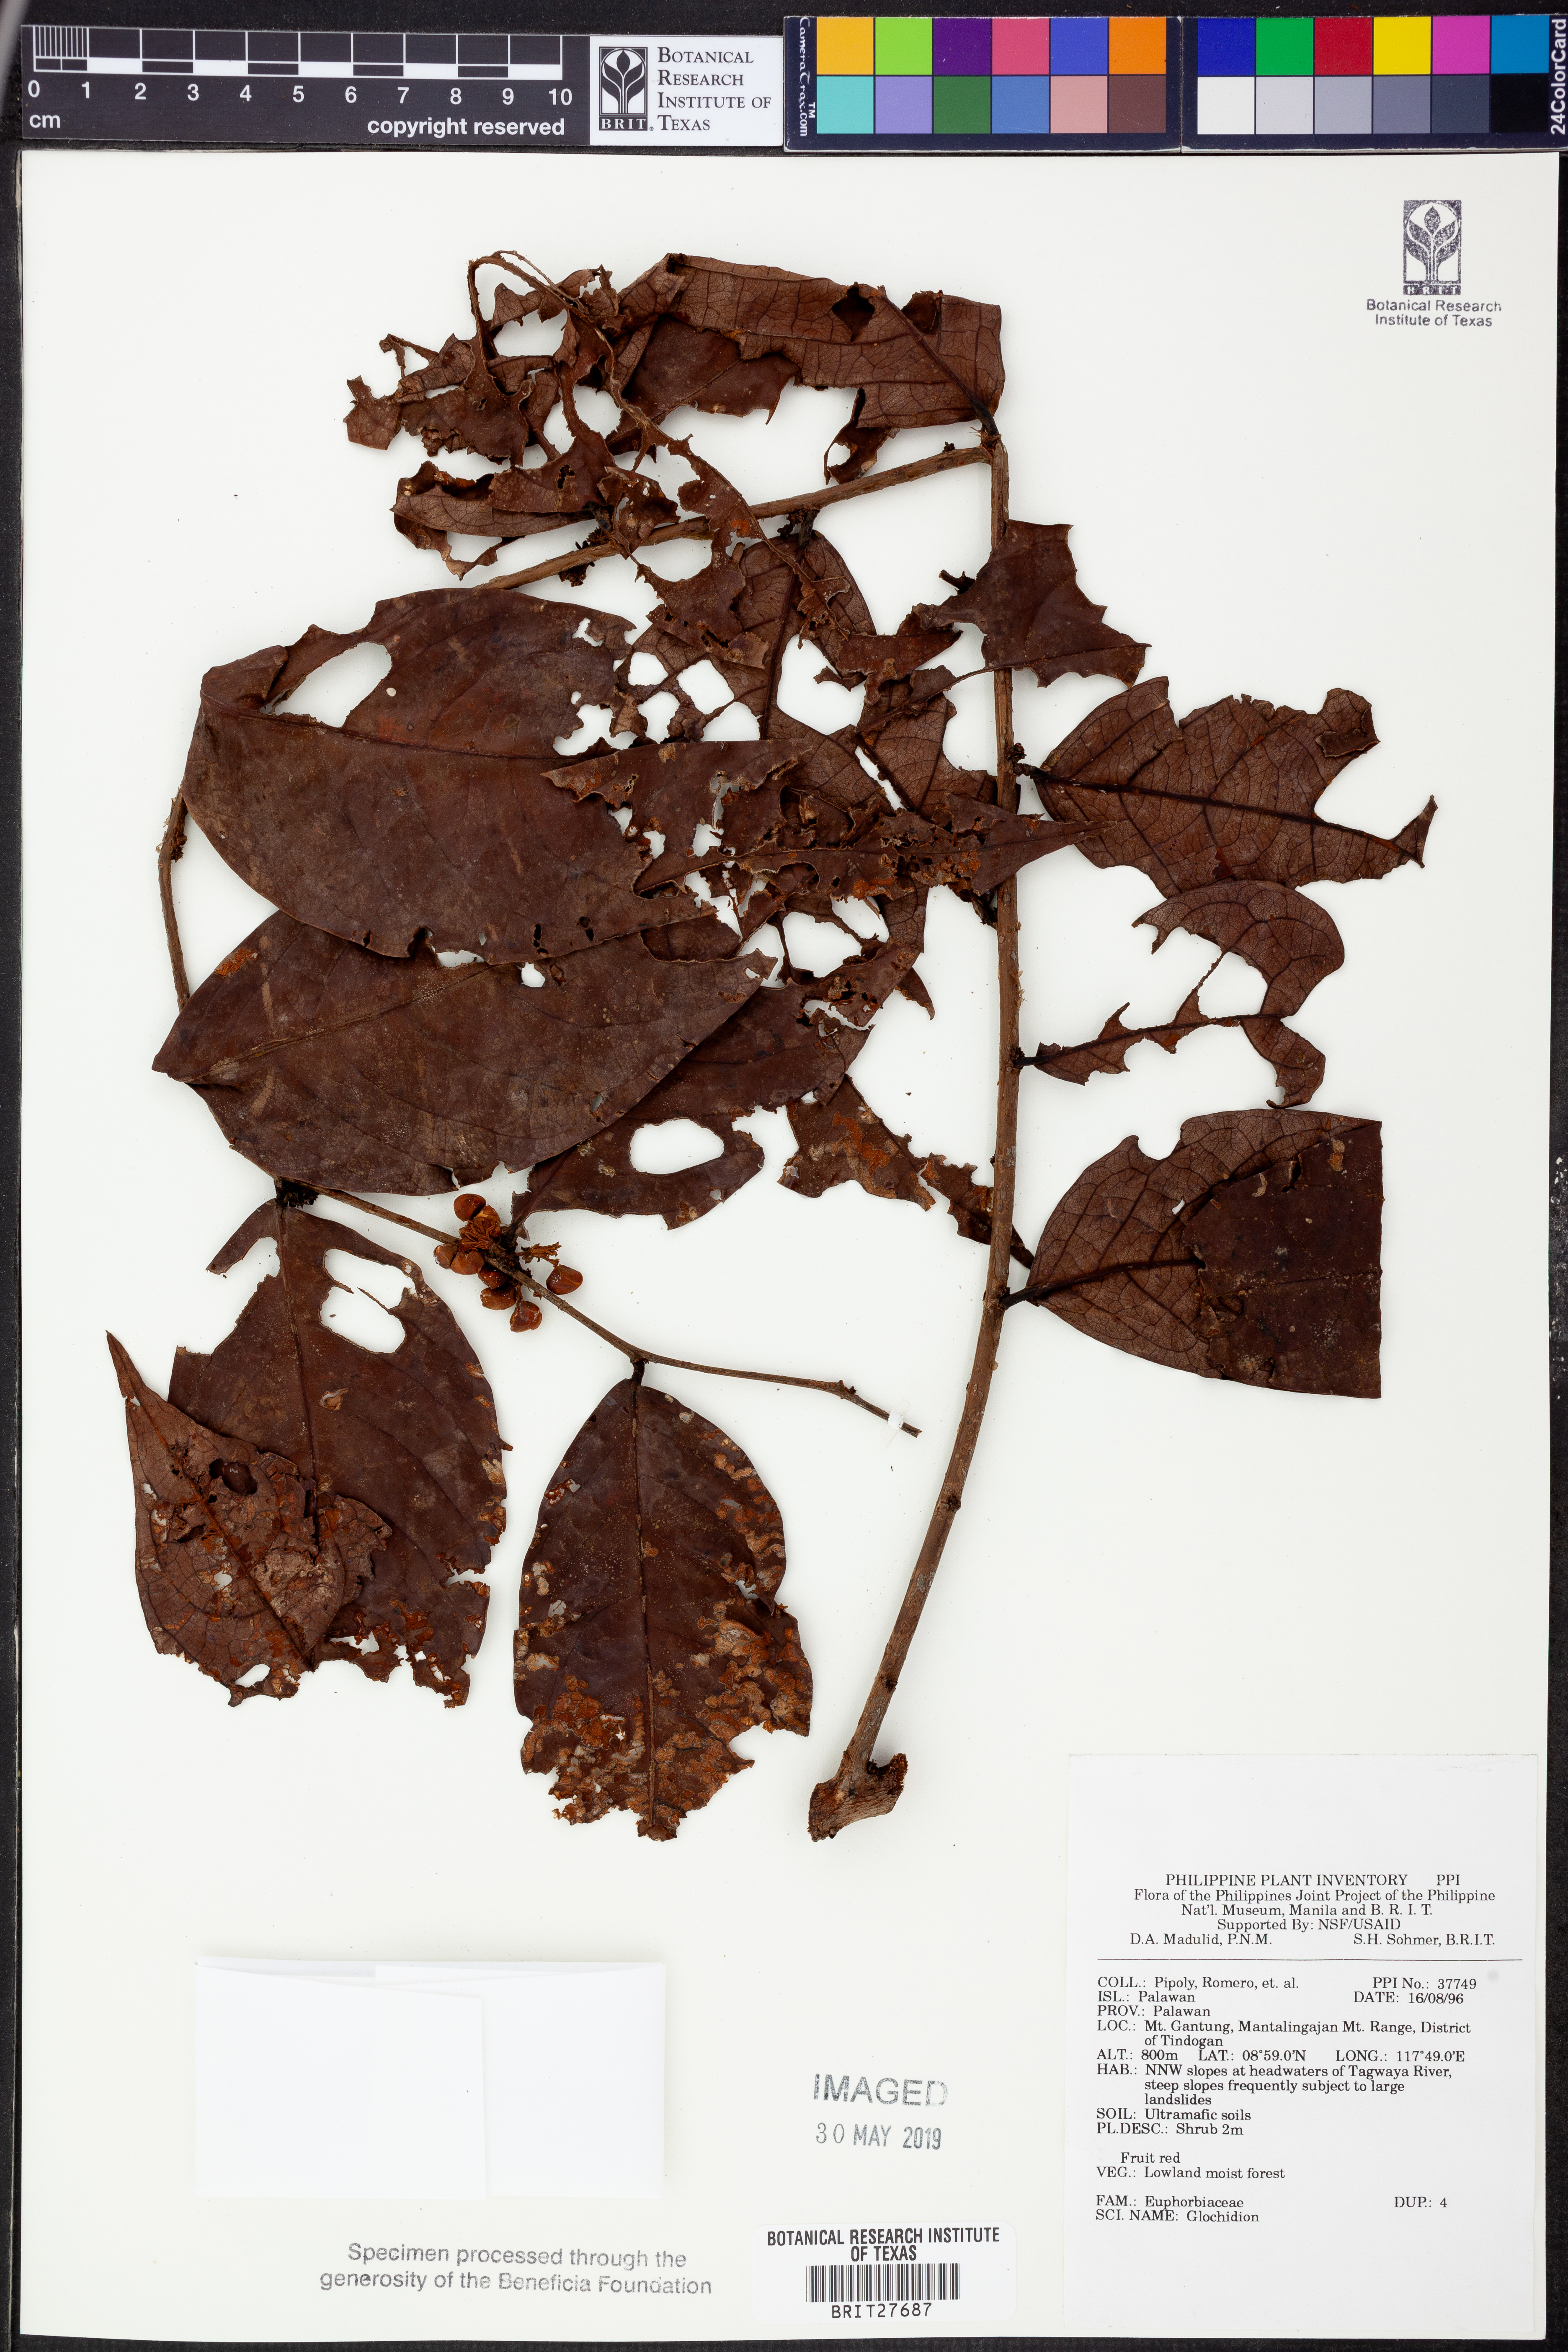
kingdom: Plantae
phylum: Tracheophyta
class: Magnoliopsida
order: Malpighiales
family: Phyllanthaceae
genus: Glochidion
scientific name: Glochidion
